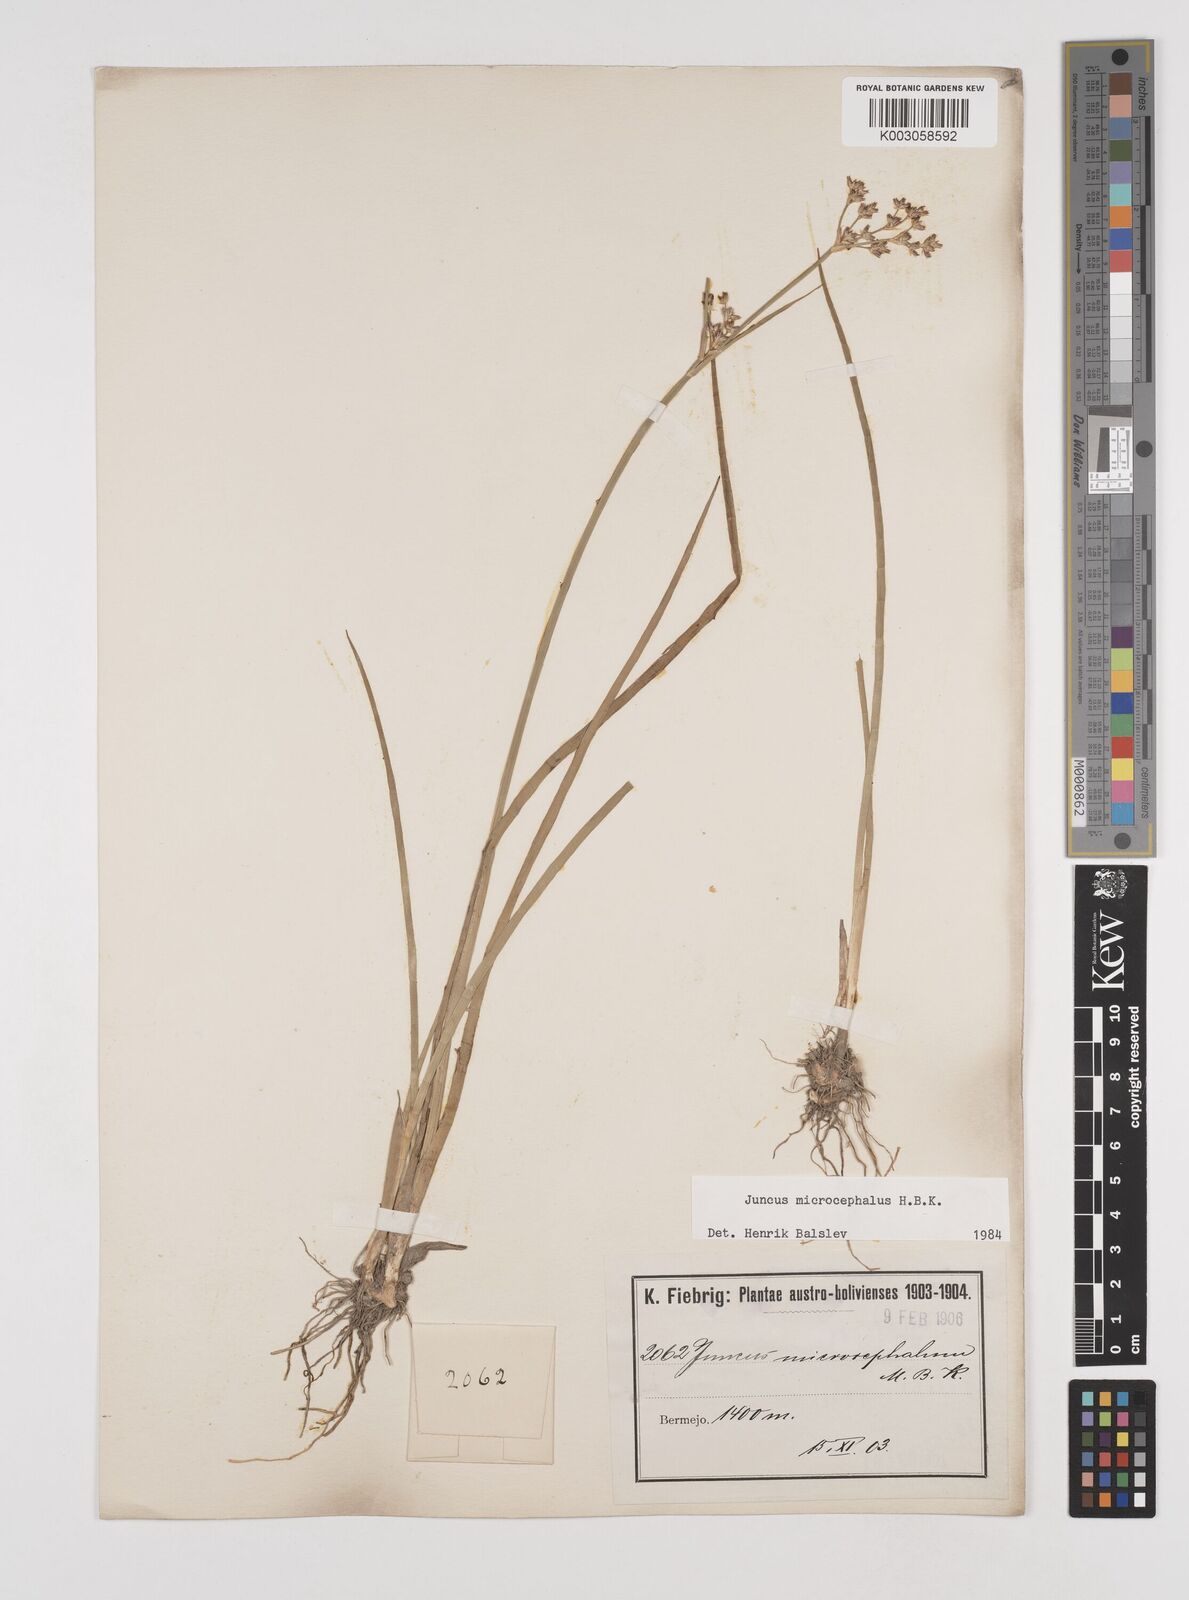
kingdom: Plantae
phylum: Tracheophyta
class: Liliopsida
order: Poales
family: Juncaceae
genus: Juncus
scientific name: Juncus
